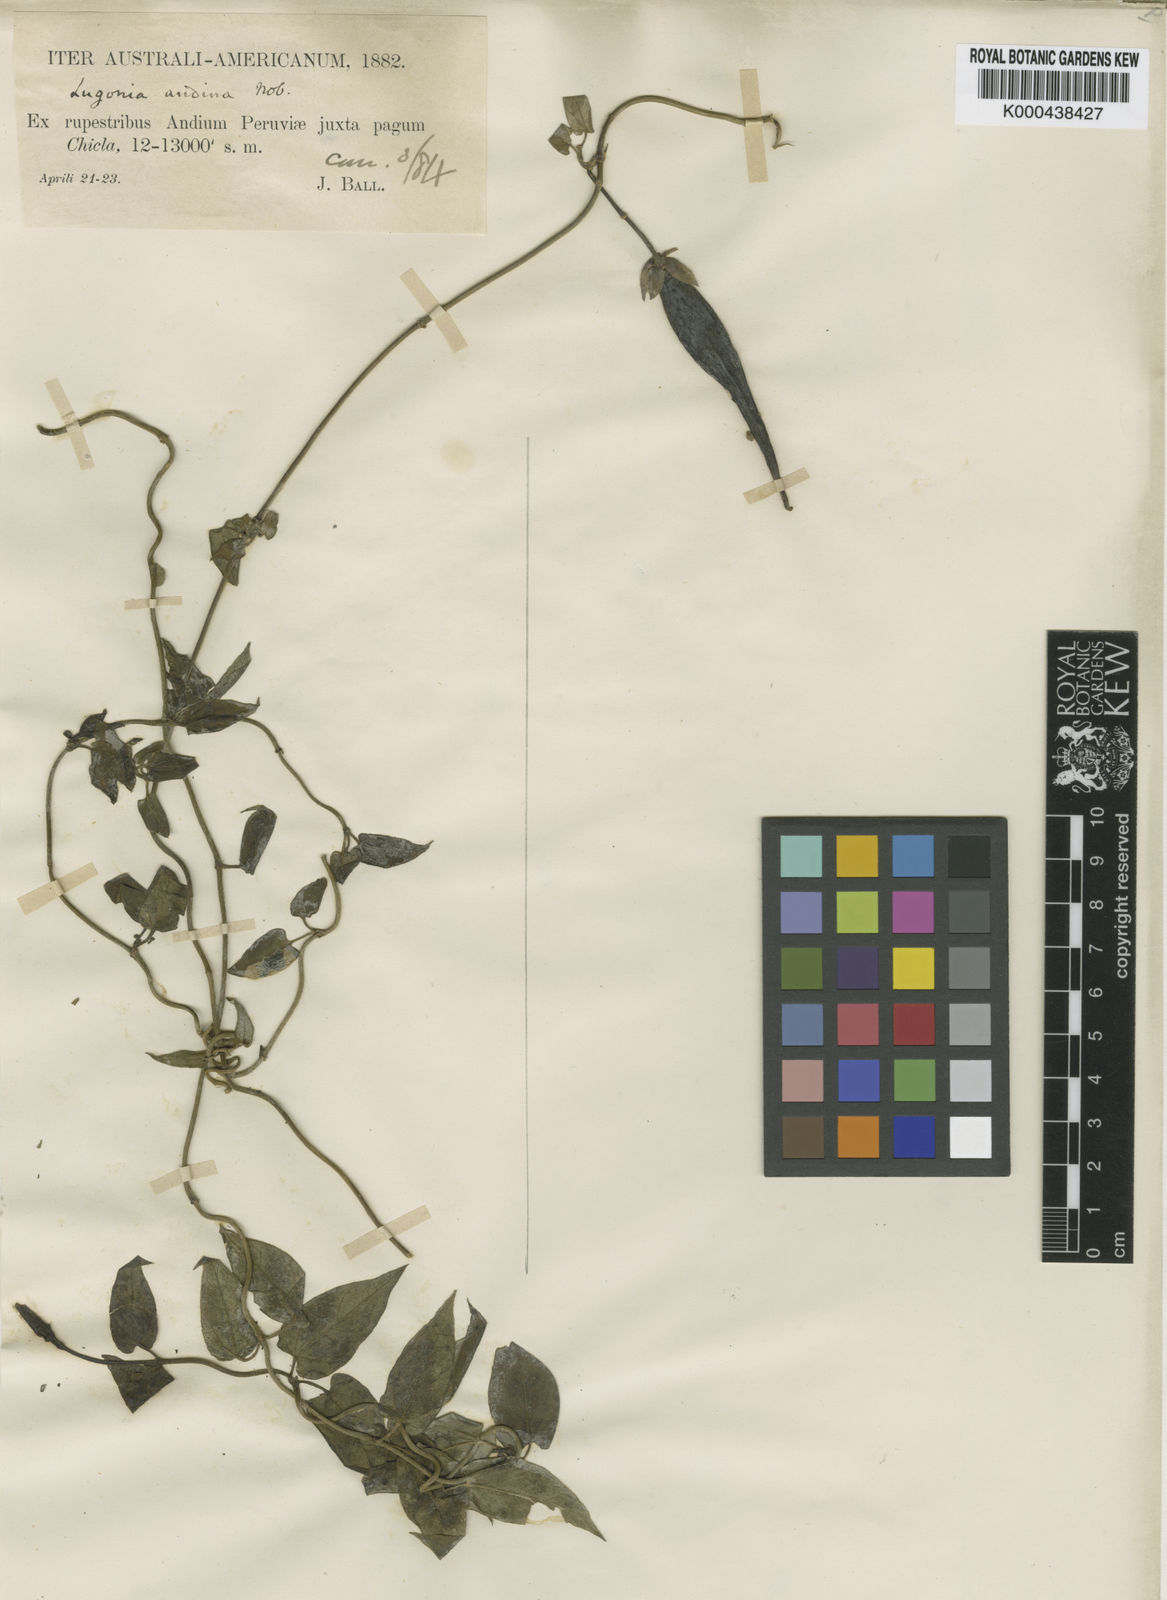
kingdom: Plantae
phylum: Tracheophyta
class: Magnoliopsida
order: Gentianales
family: Apocynaceae
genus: Pentacyphus
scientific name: Pentacyphus andinus
